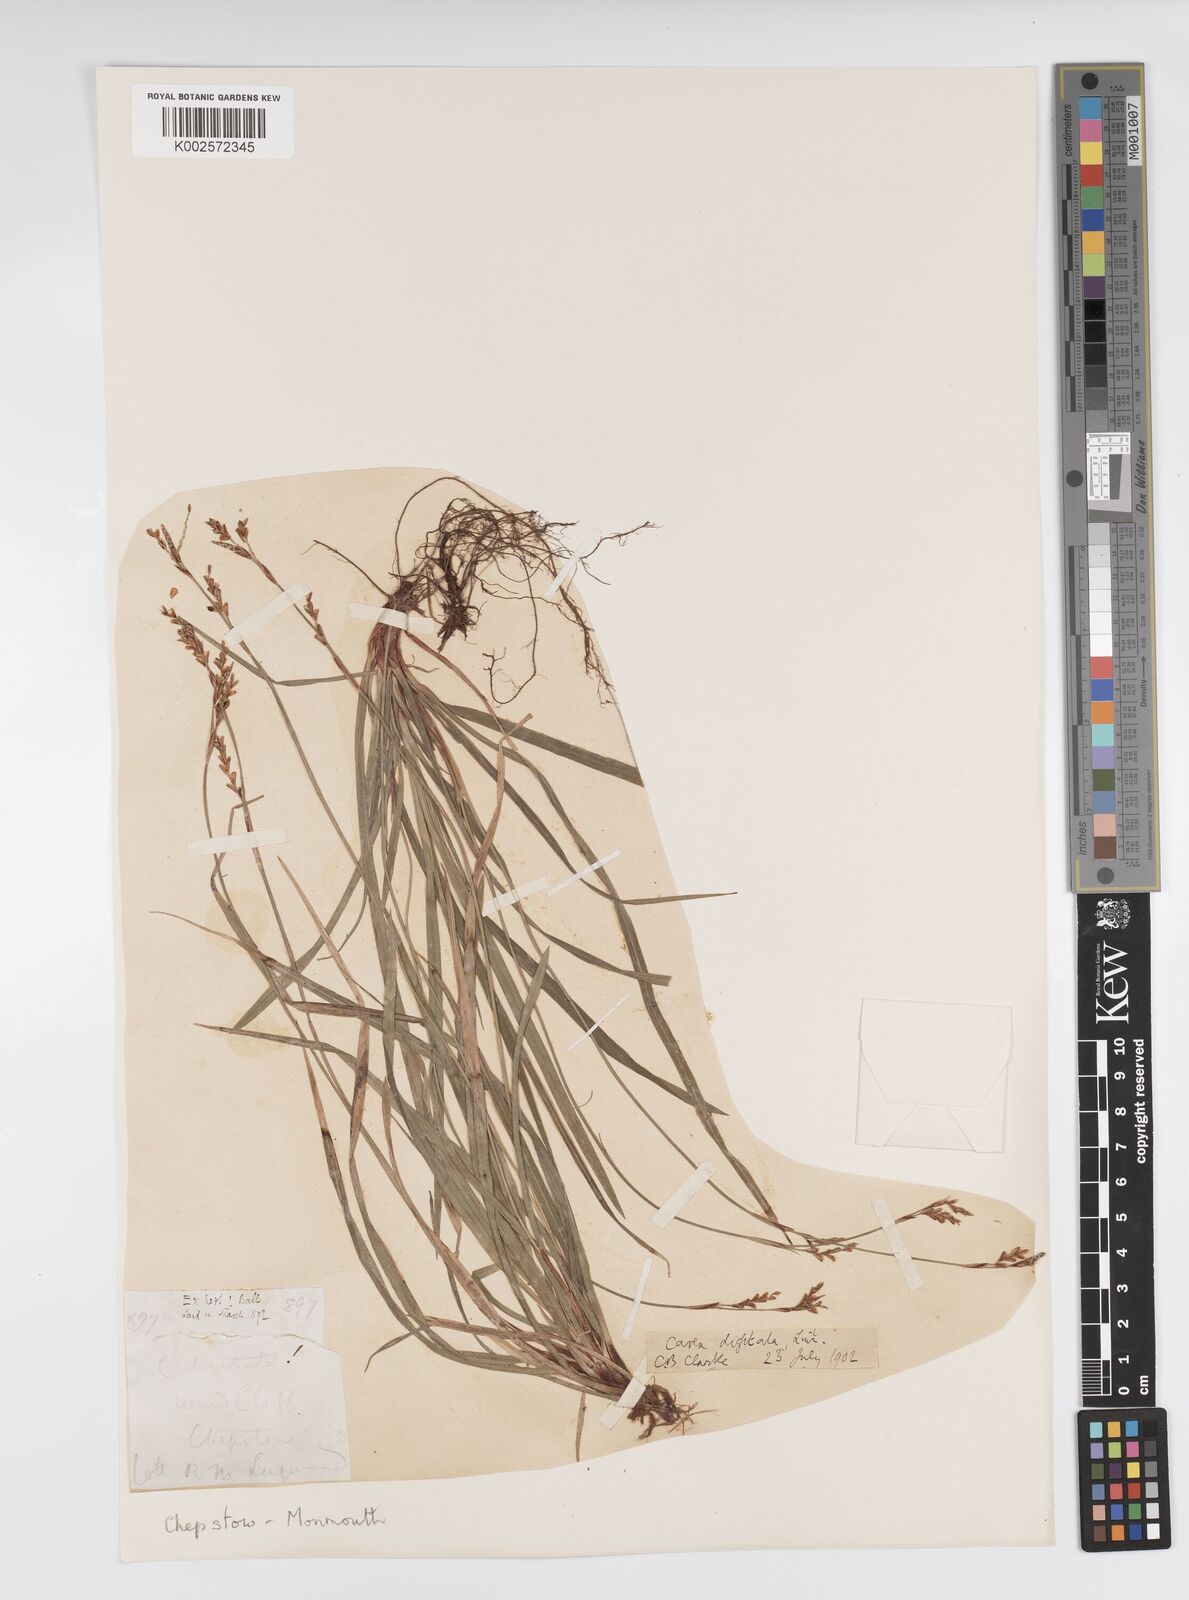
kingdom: Plantae
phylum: Tracheophyta
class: Liliopsida
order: Poales
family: Cyperaceae
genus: Carex
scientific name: Carex digitata
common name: Fingered sedge
